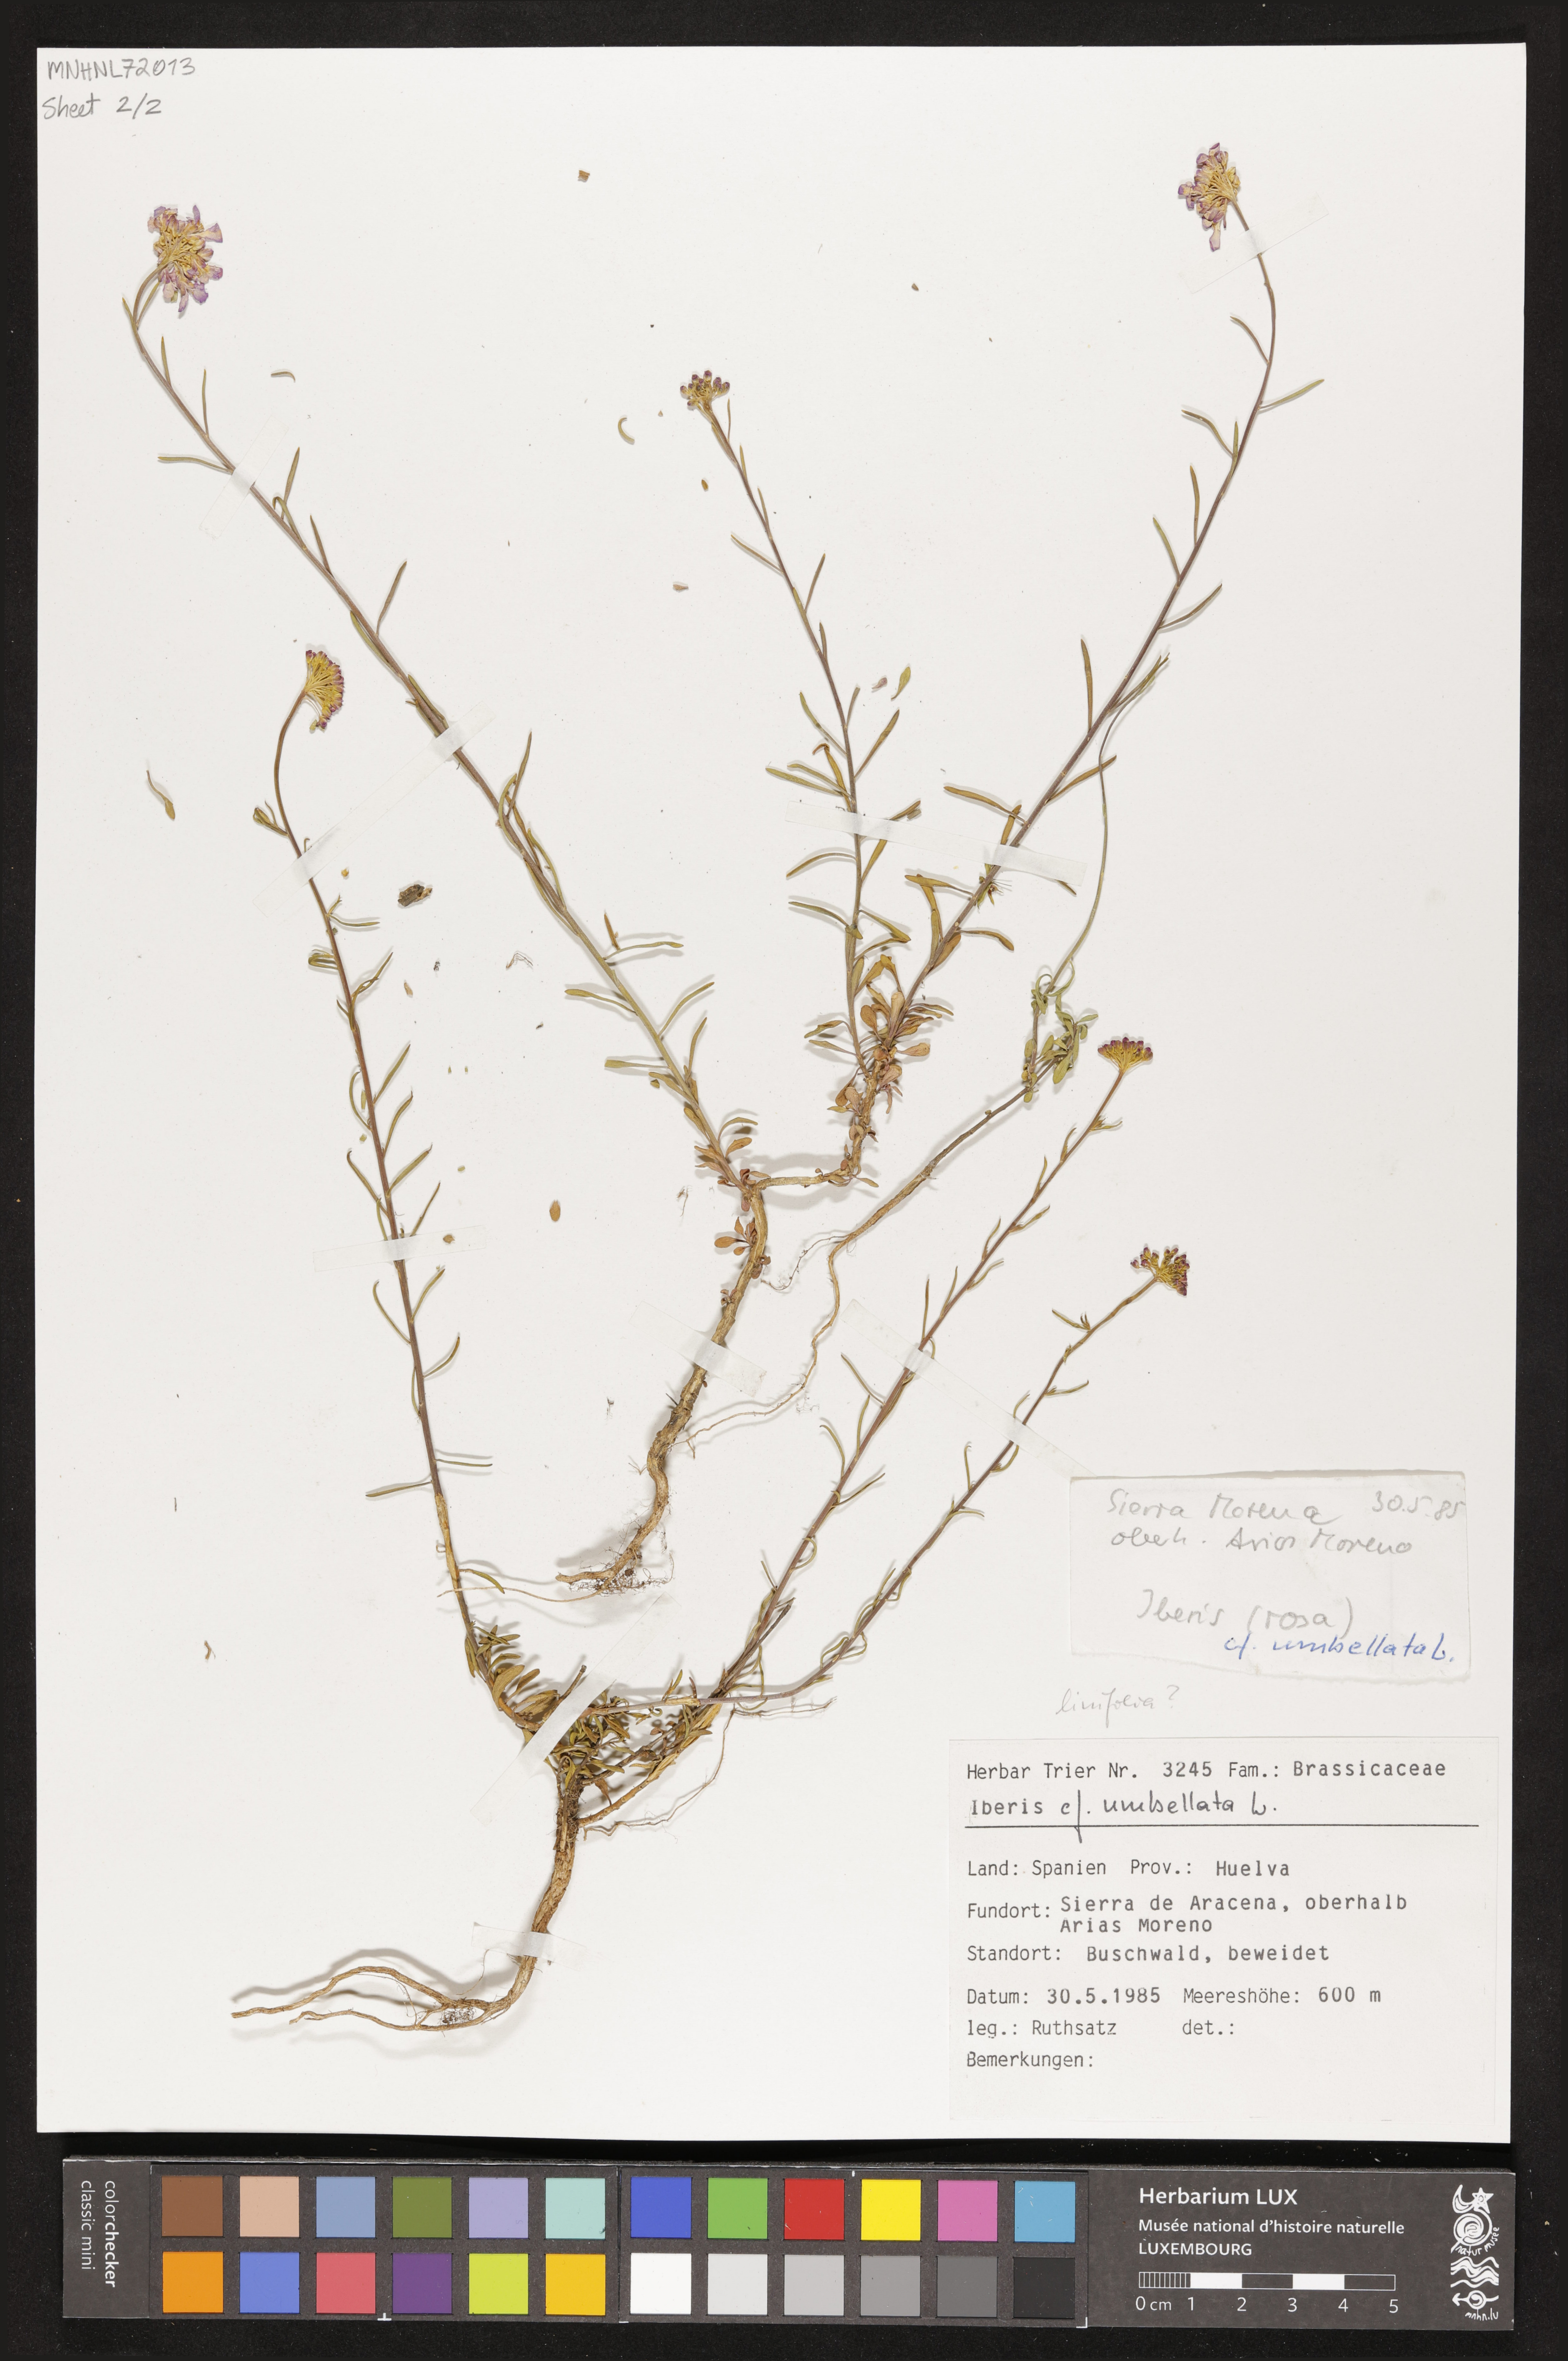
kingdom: Plantae
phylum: Tracheophyta
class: Magnoliopsida
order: Brassicales
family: Brassicaceae
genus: Iberis
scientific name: Iberis umbellata
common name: Globe candytuft
